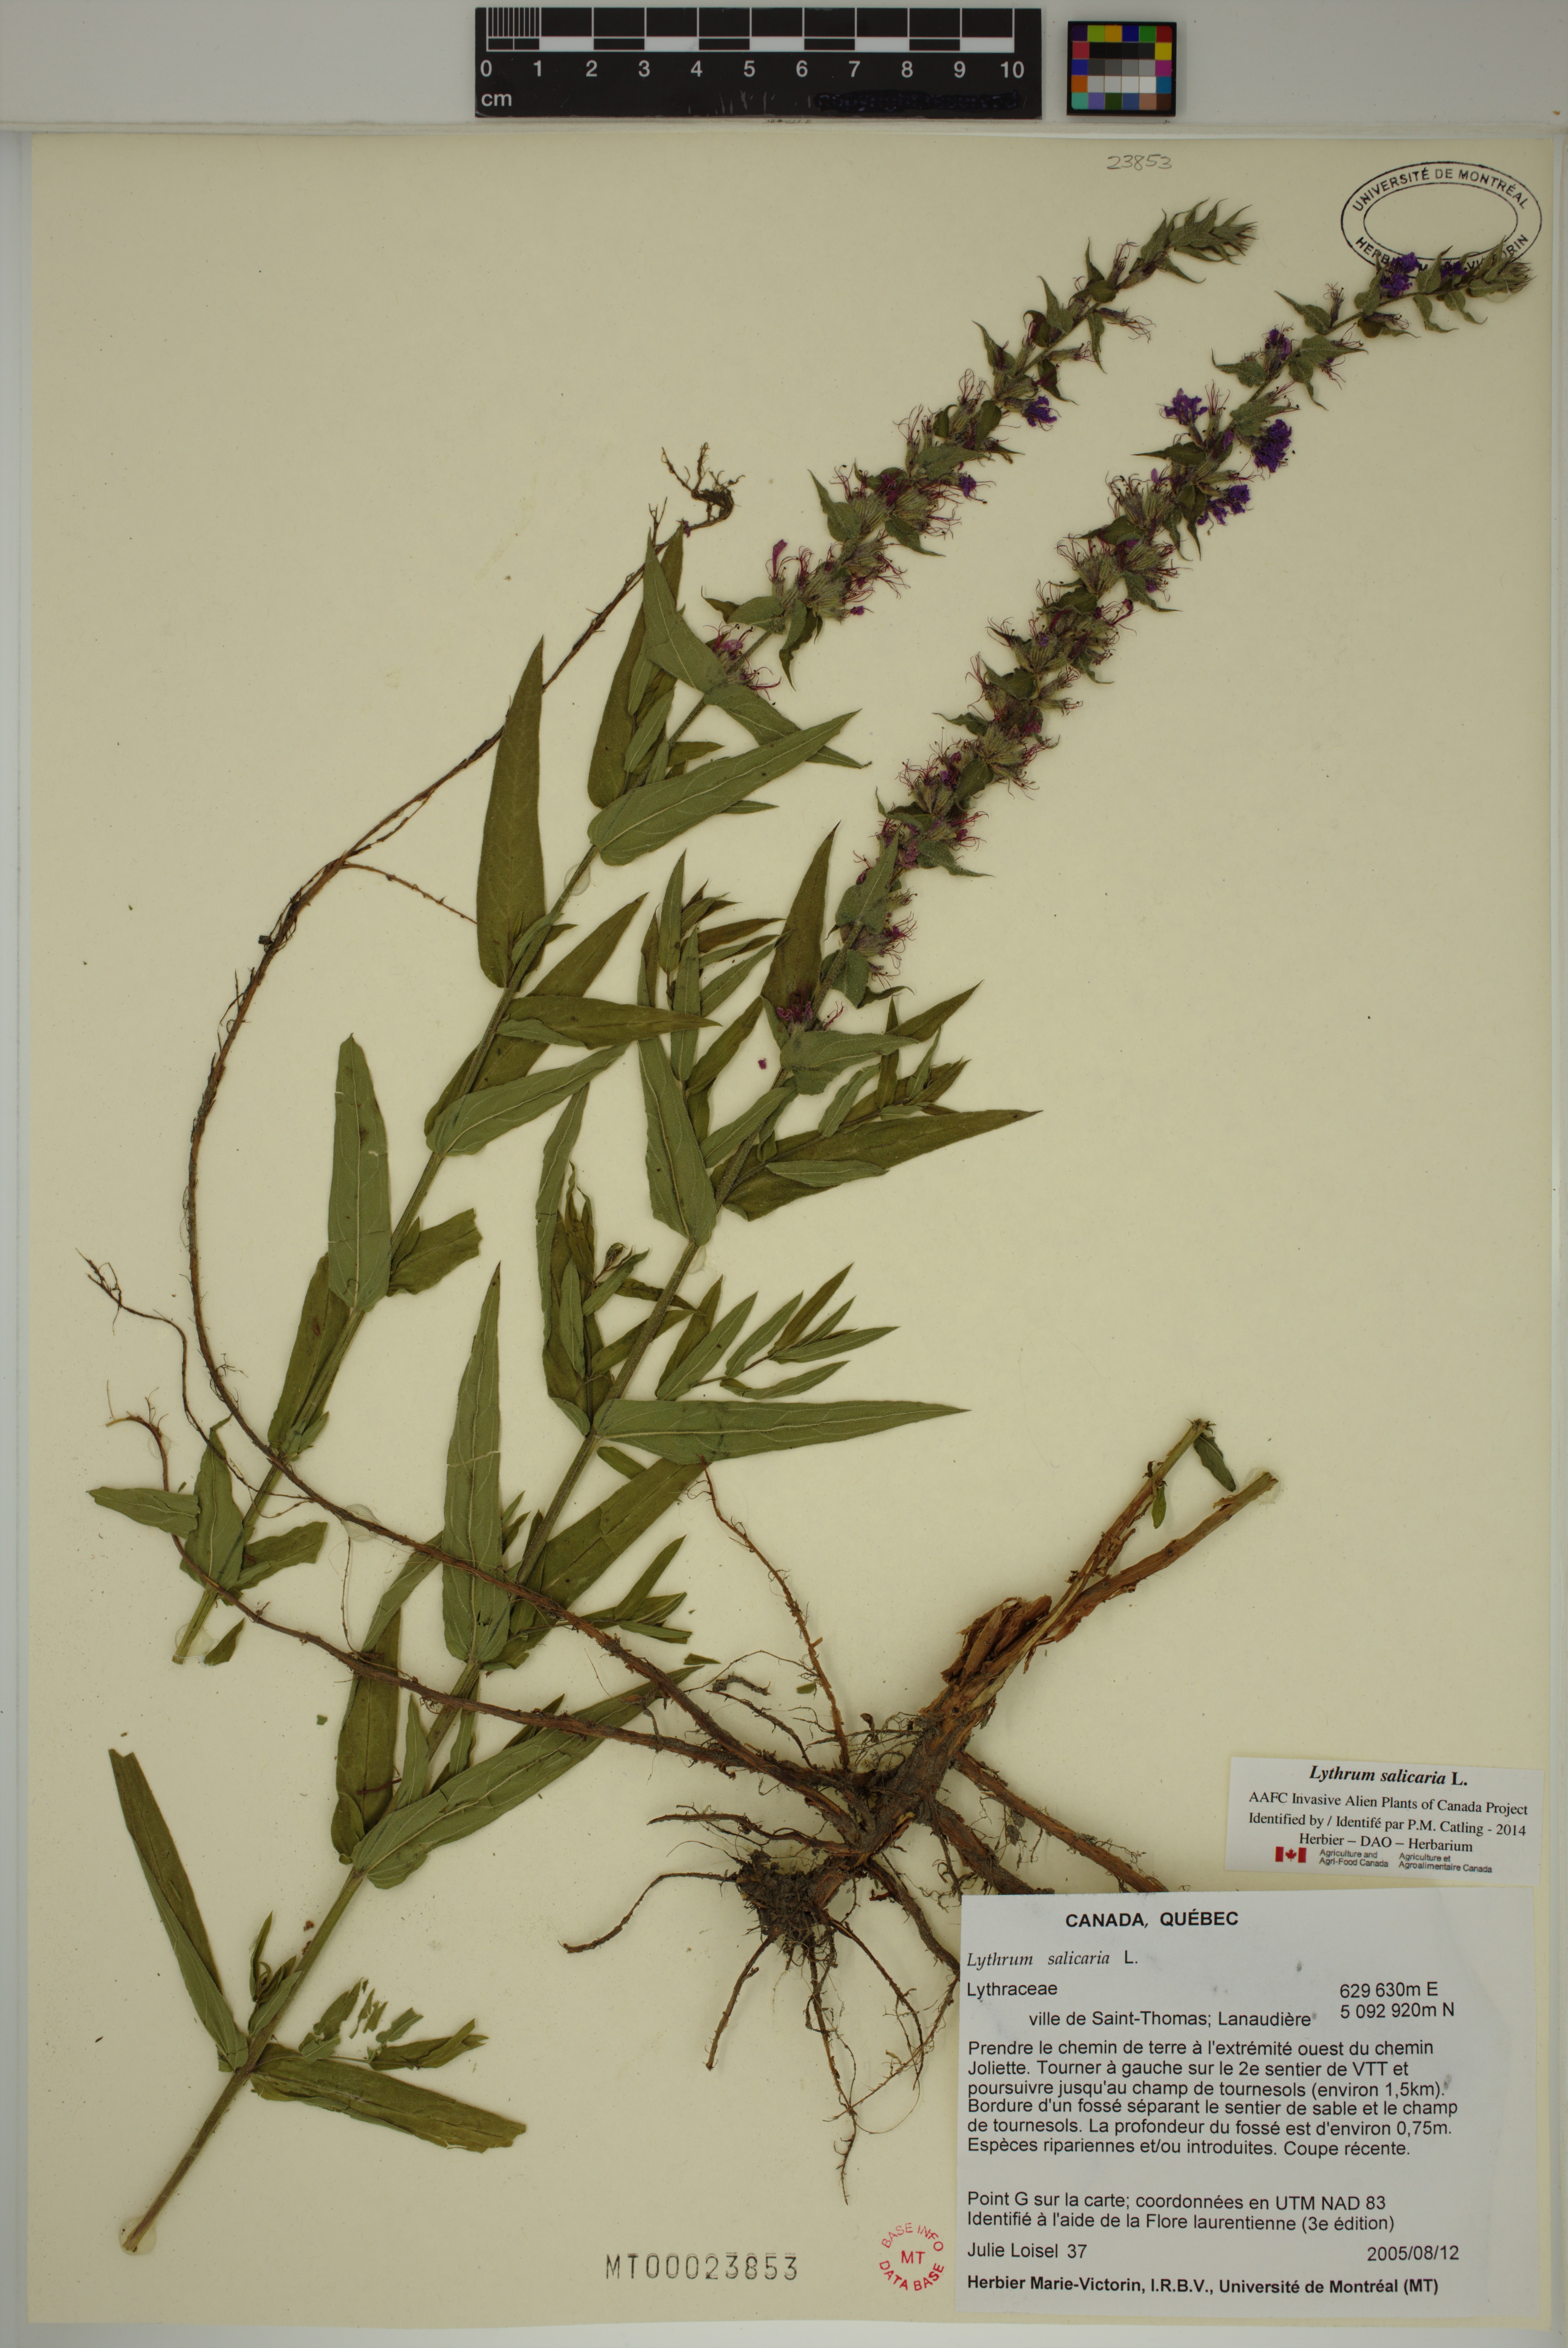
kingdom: Plantae
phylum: Tracheophyta
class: Magnoliopsida
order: Myrtales
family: Lythraceae
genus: Lythrum
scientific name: Lythrum salicaria
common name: Purple loosestrife
